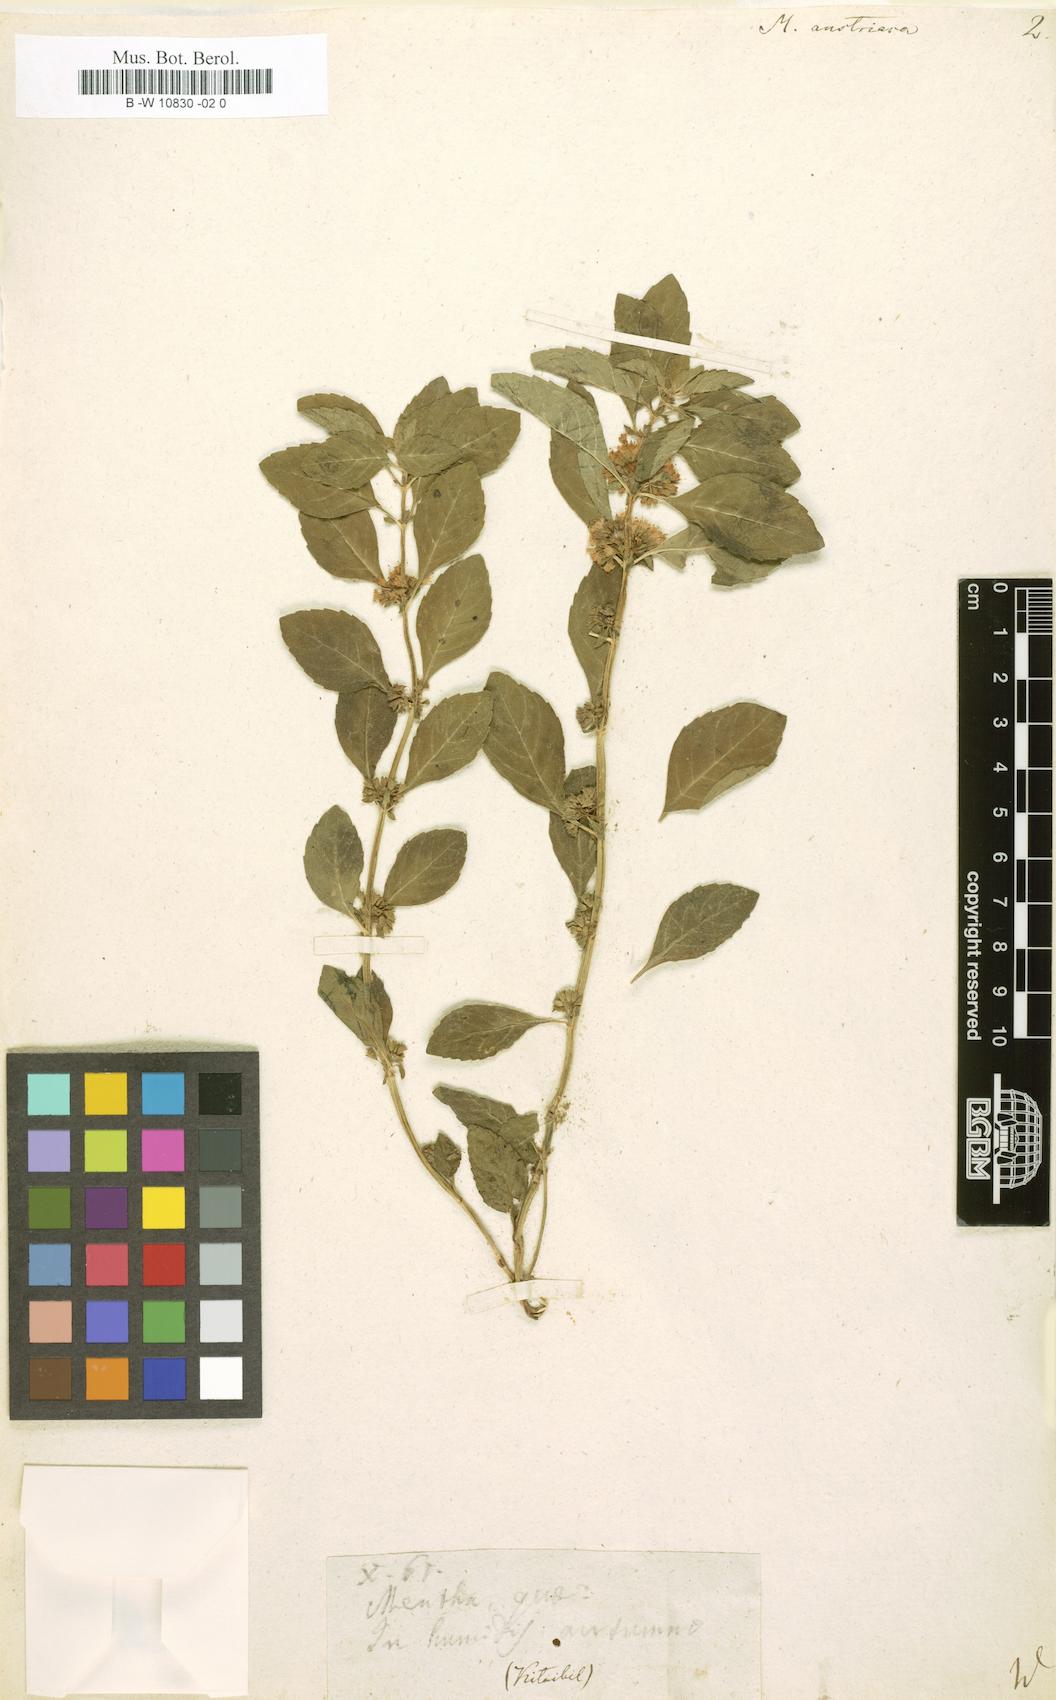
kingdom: Plantae
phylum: Tracheophyta
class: Magnoliopsida
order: Lamiales
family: Lamiaceae
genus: Mentha
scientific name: Mentha arvensis
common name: Corn mint
